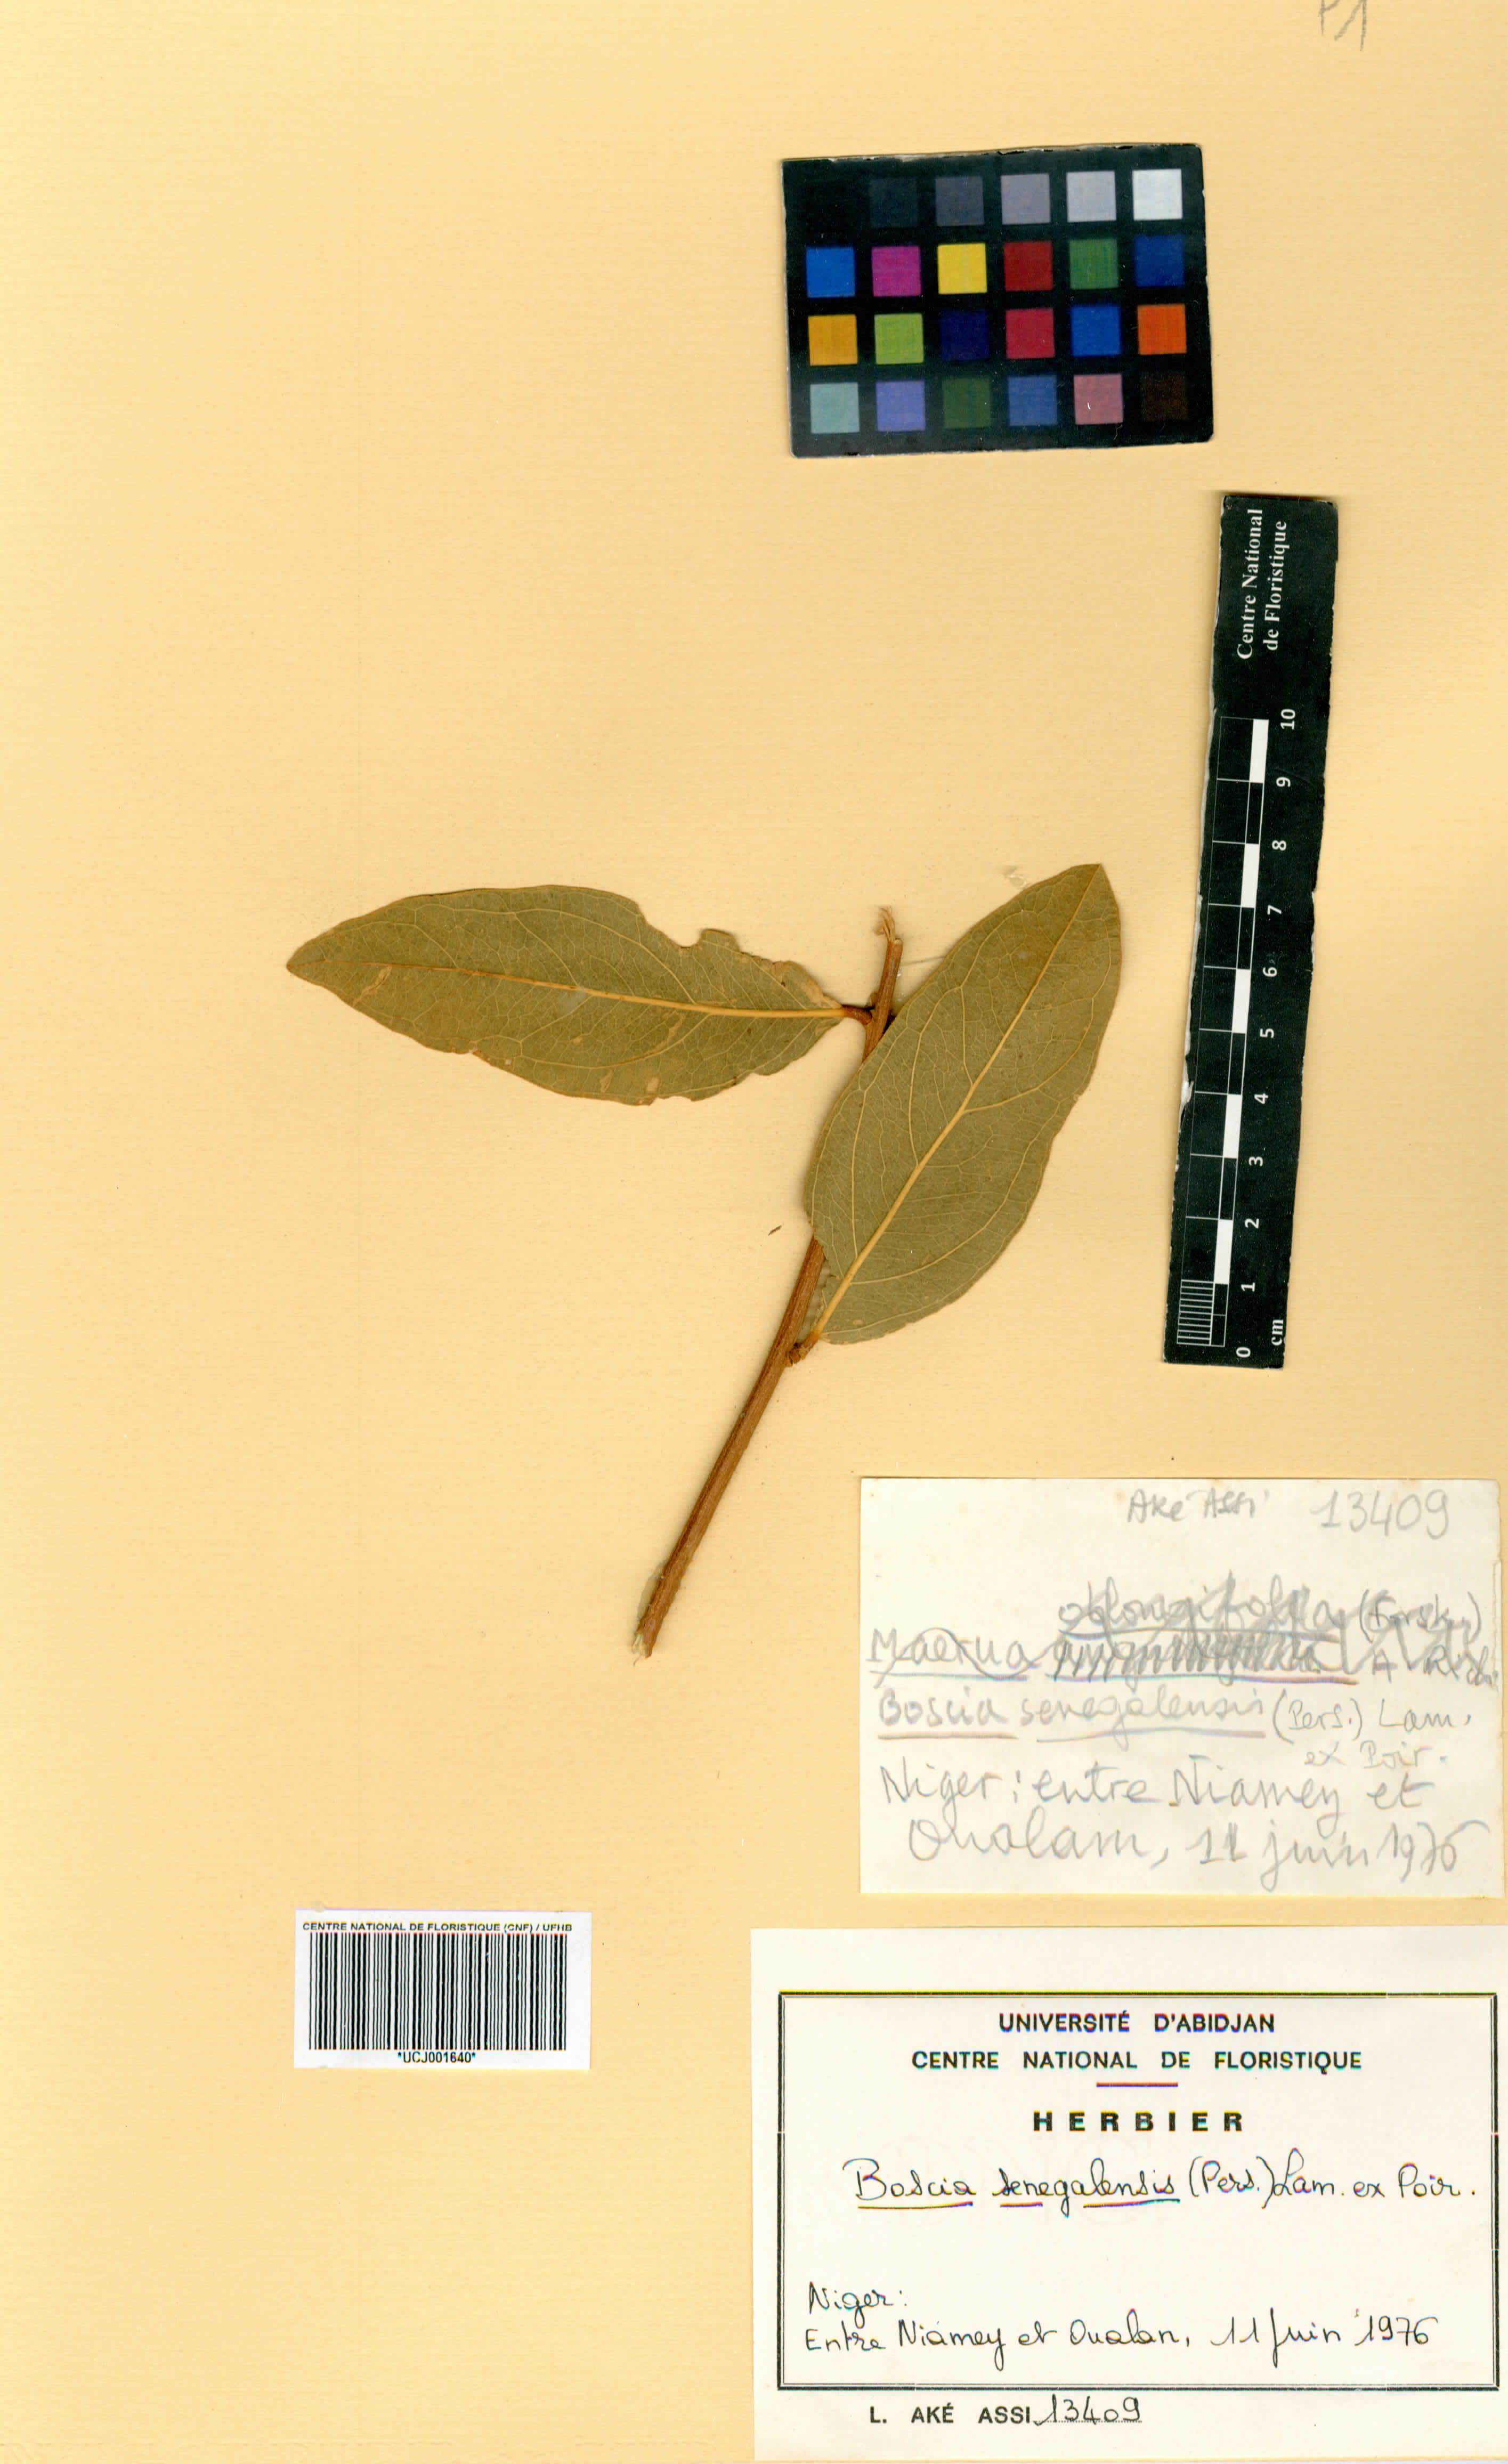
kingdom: Plantae
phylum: Tracheophyta
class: Magnoliopsida
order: Brassicales
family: Capparaceae
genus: Boscia
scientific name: Boscia senegalensis
